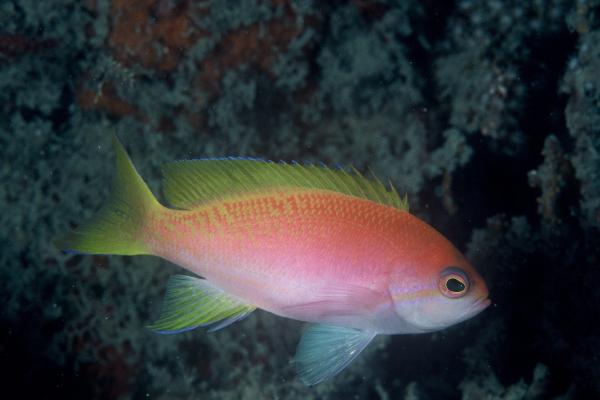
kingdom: Animalia
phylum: Chordata
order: Perciformes
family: Serranidae
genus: Pseudanthias
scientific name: Pseudanthias bimaculatus
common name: Two-spot basslet
